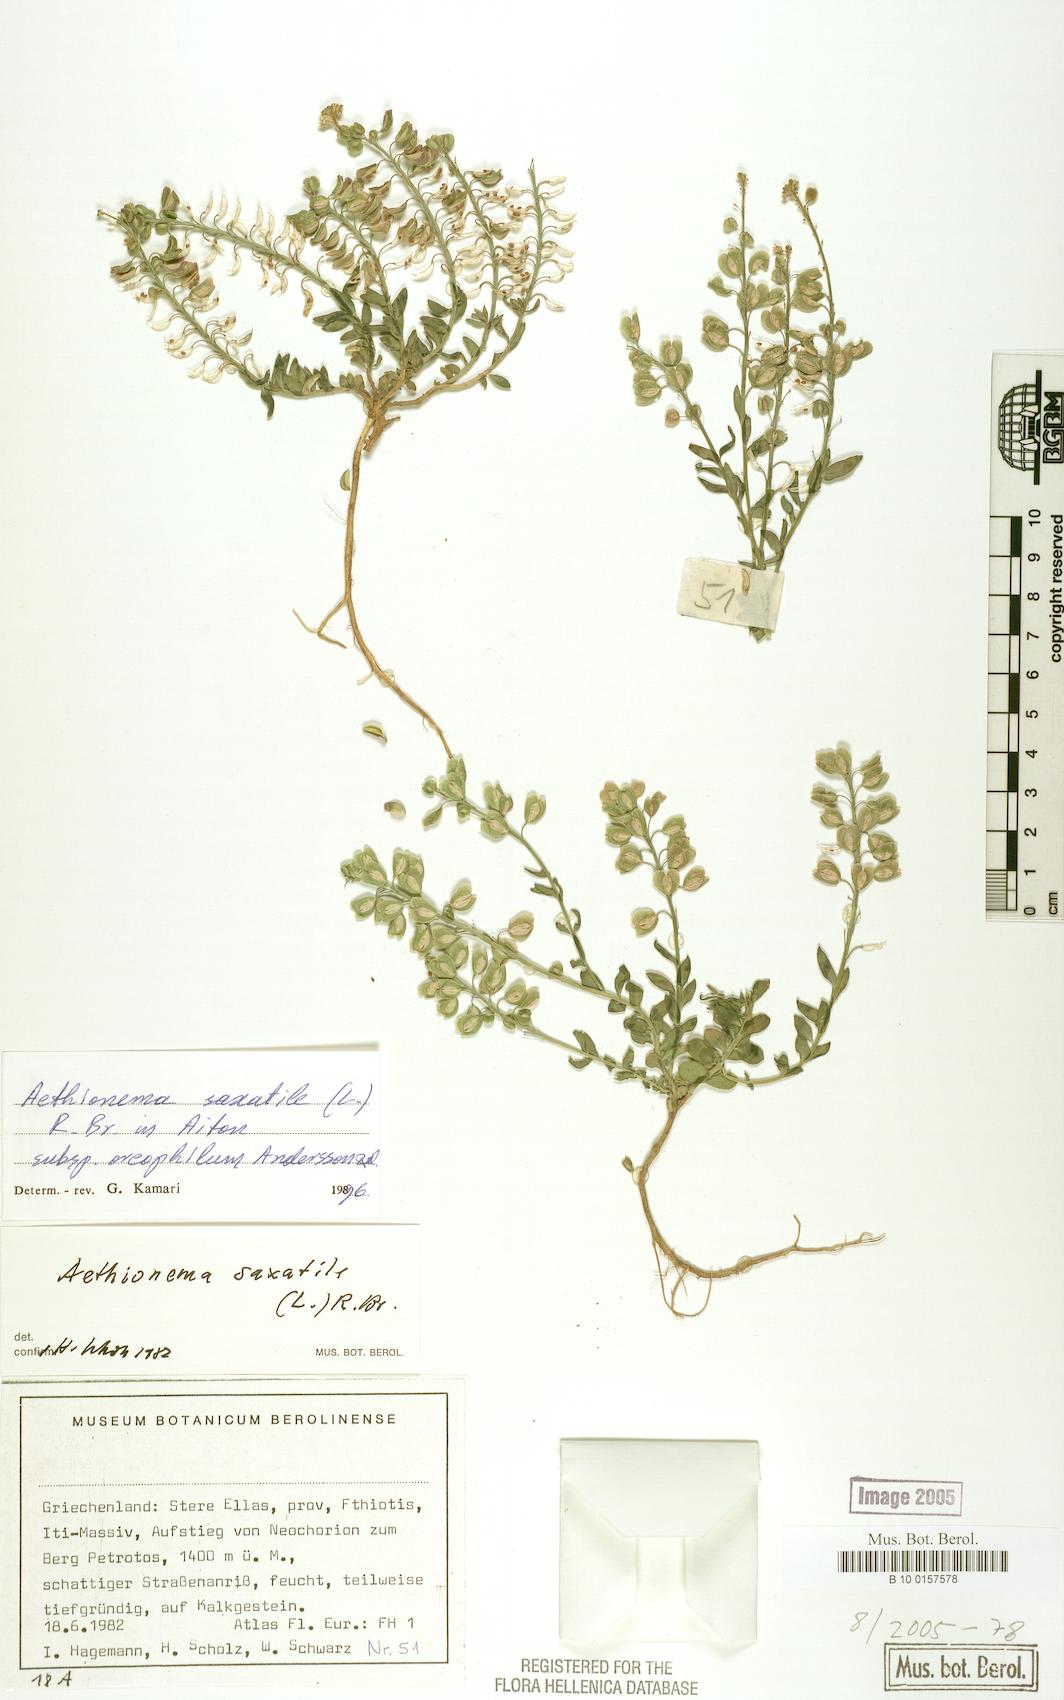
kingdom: Plantae
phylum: Tracheophyta
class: Magnoliopsida
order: Brassicales
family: Brassicaceae
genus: Aethionema
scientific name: Aethionema saxatile
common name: Burnt candytuft
